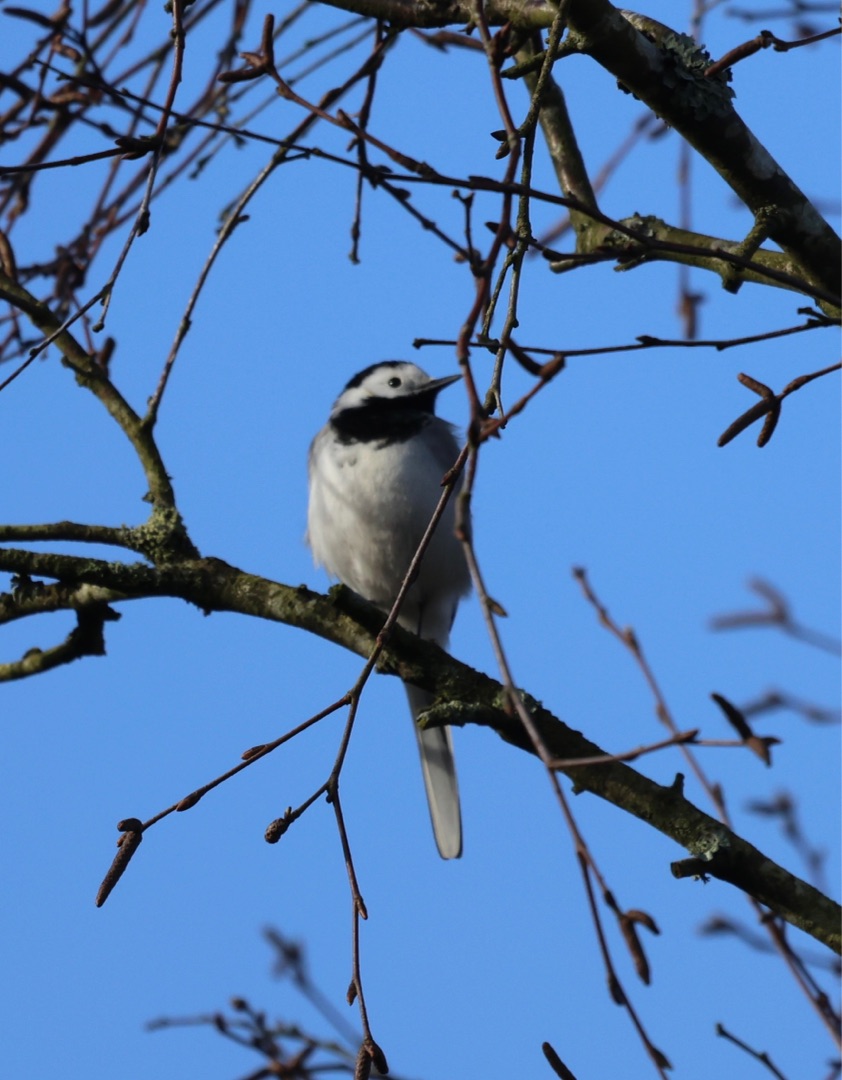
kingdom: Animalia
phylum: Chordata
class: Aves
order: Passeriformes
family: Motacillidae
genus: Motacilla
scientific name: Motacilla alba
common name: Hvid vipstjert
